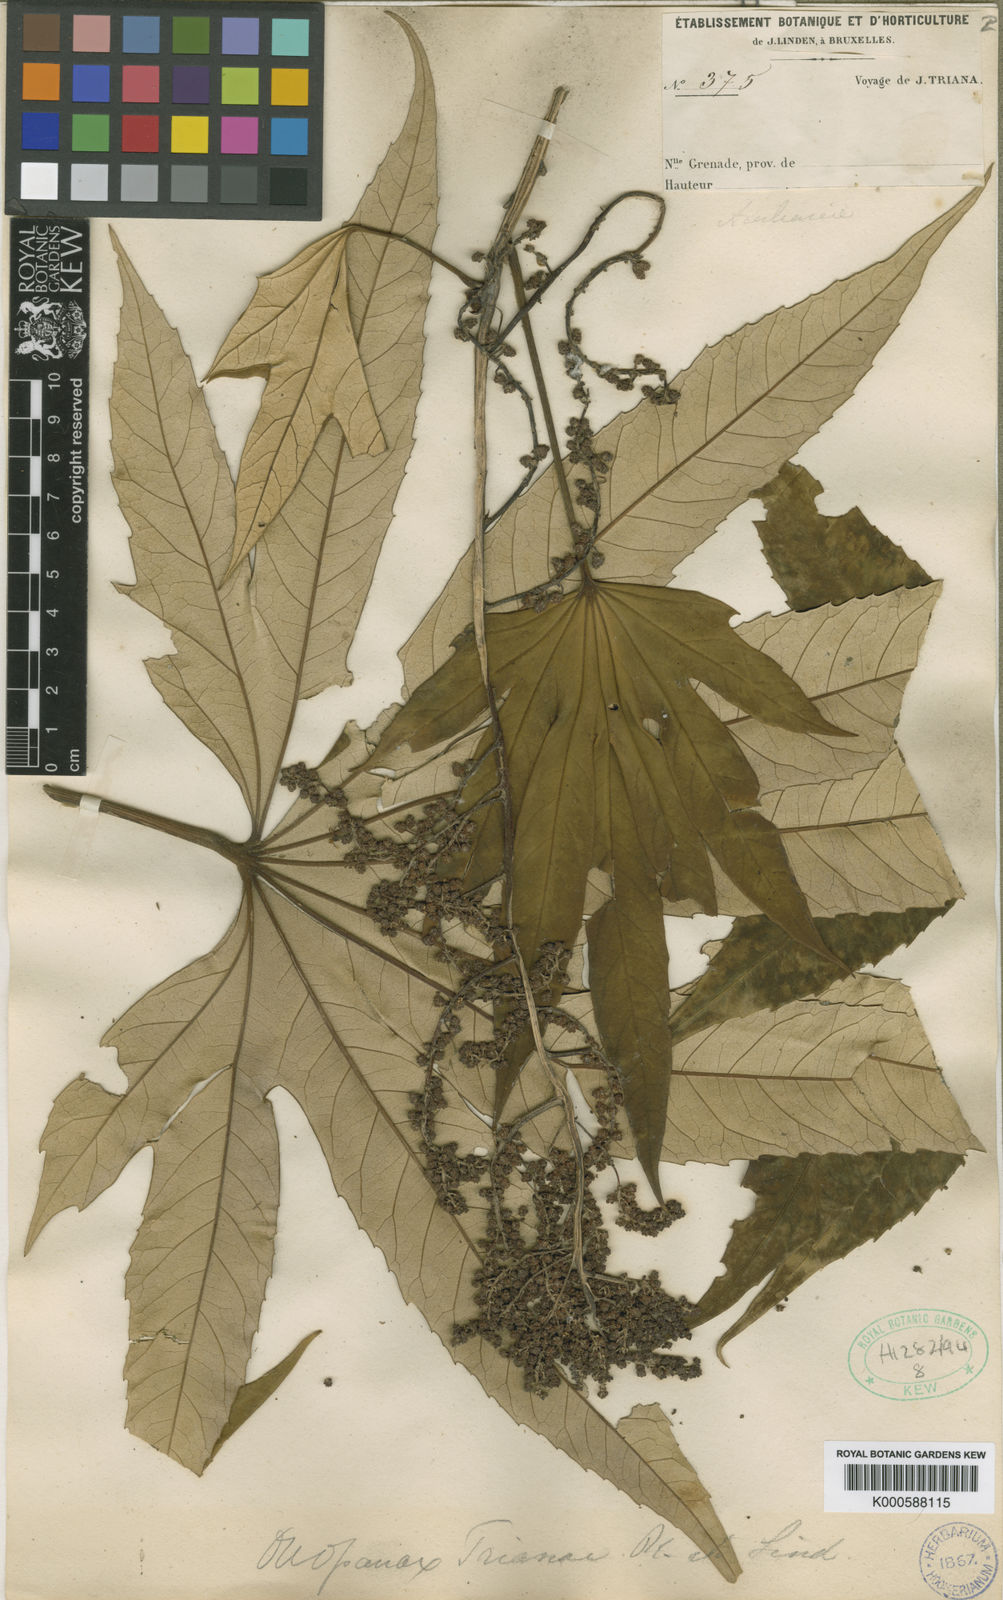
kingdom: Plantae
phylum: Tracheophyta
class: Magnoliopsida
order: Apiales
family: Araliaceae
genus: Oreopanax
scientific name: Oreopanax
